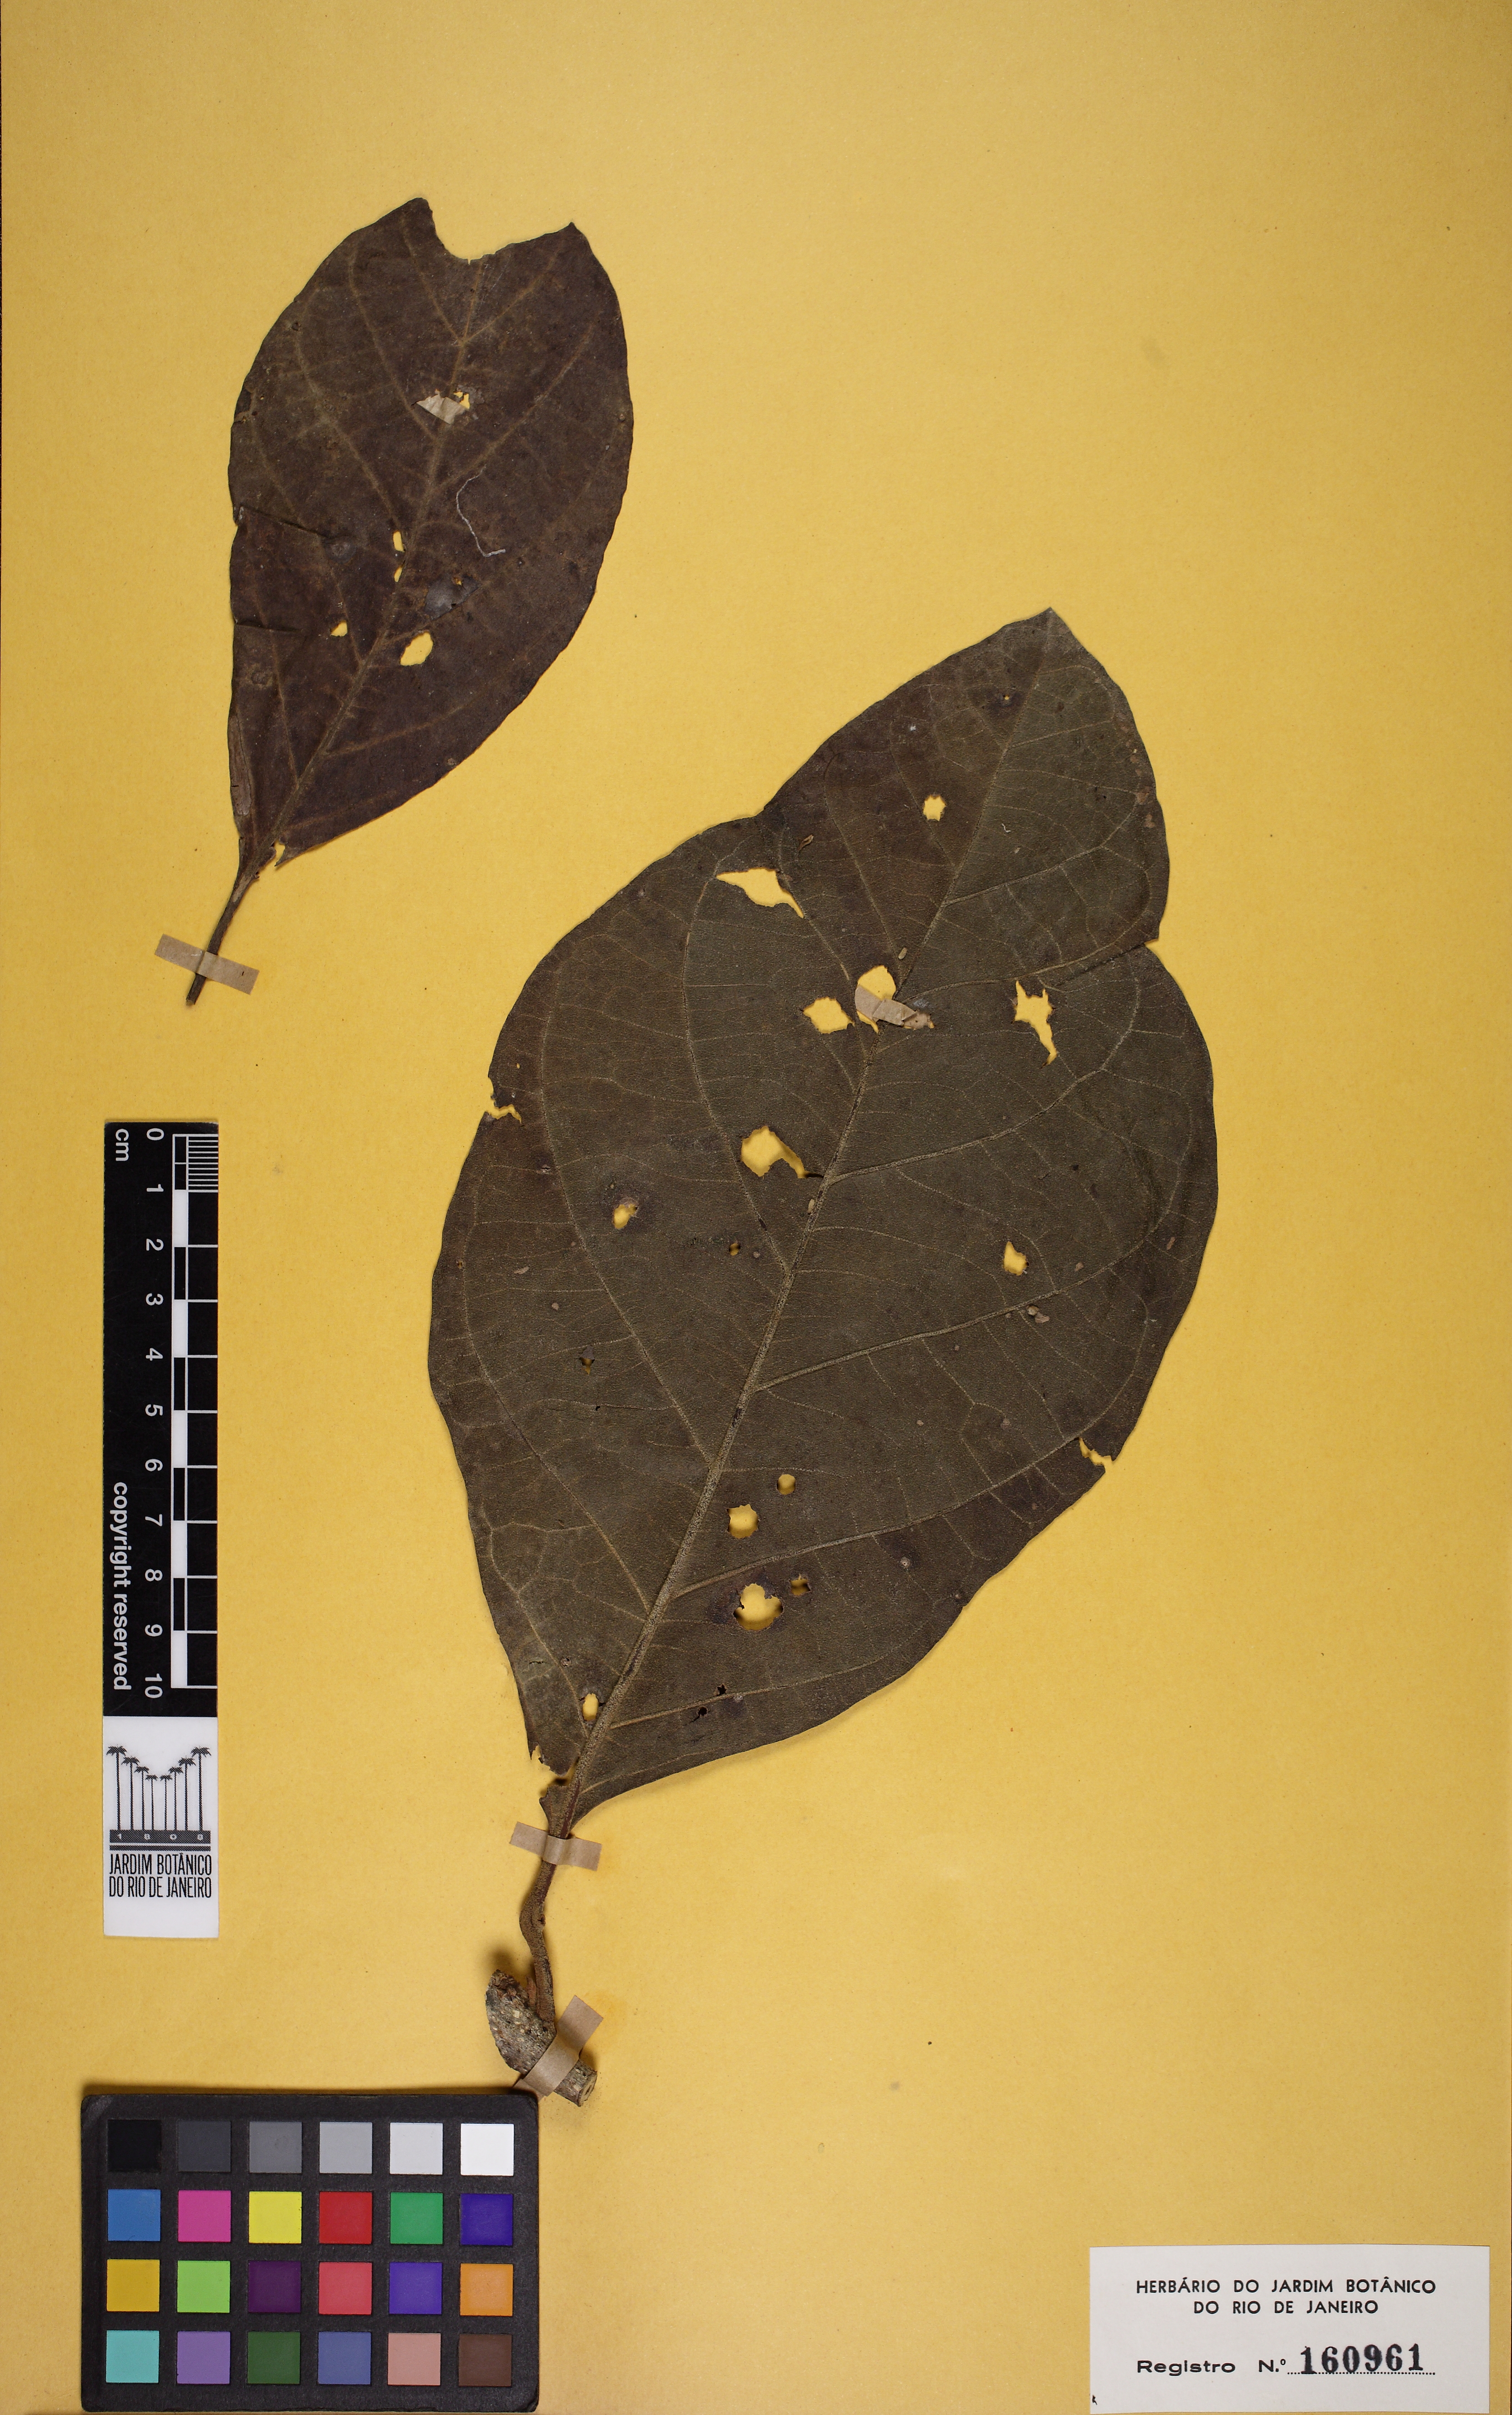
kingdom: Plantae
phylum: Tracheophyta
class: Magnoliopsida
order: Boraginales
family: Cordiaceae
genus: Cordia
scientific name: Cordia alliodora
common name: Spanish elm
